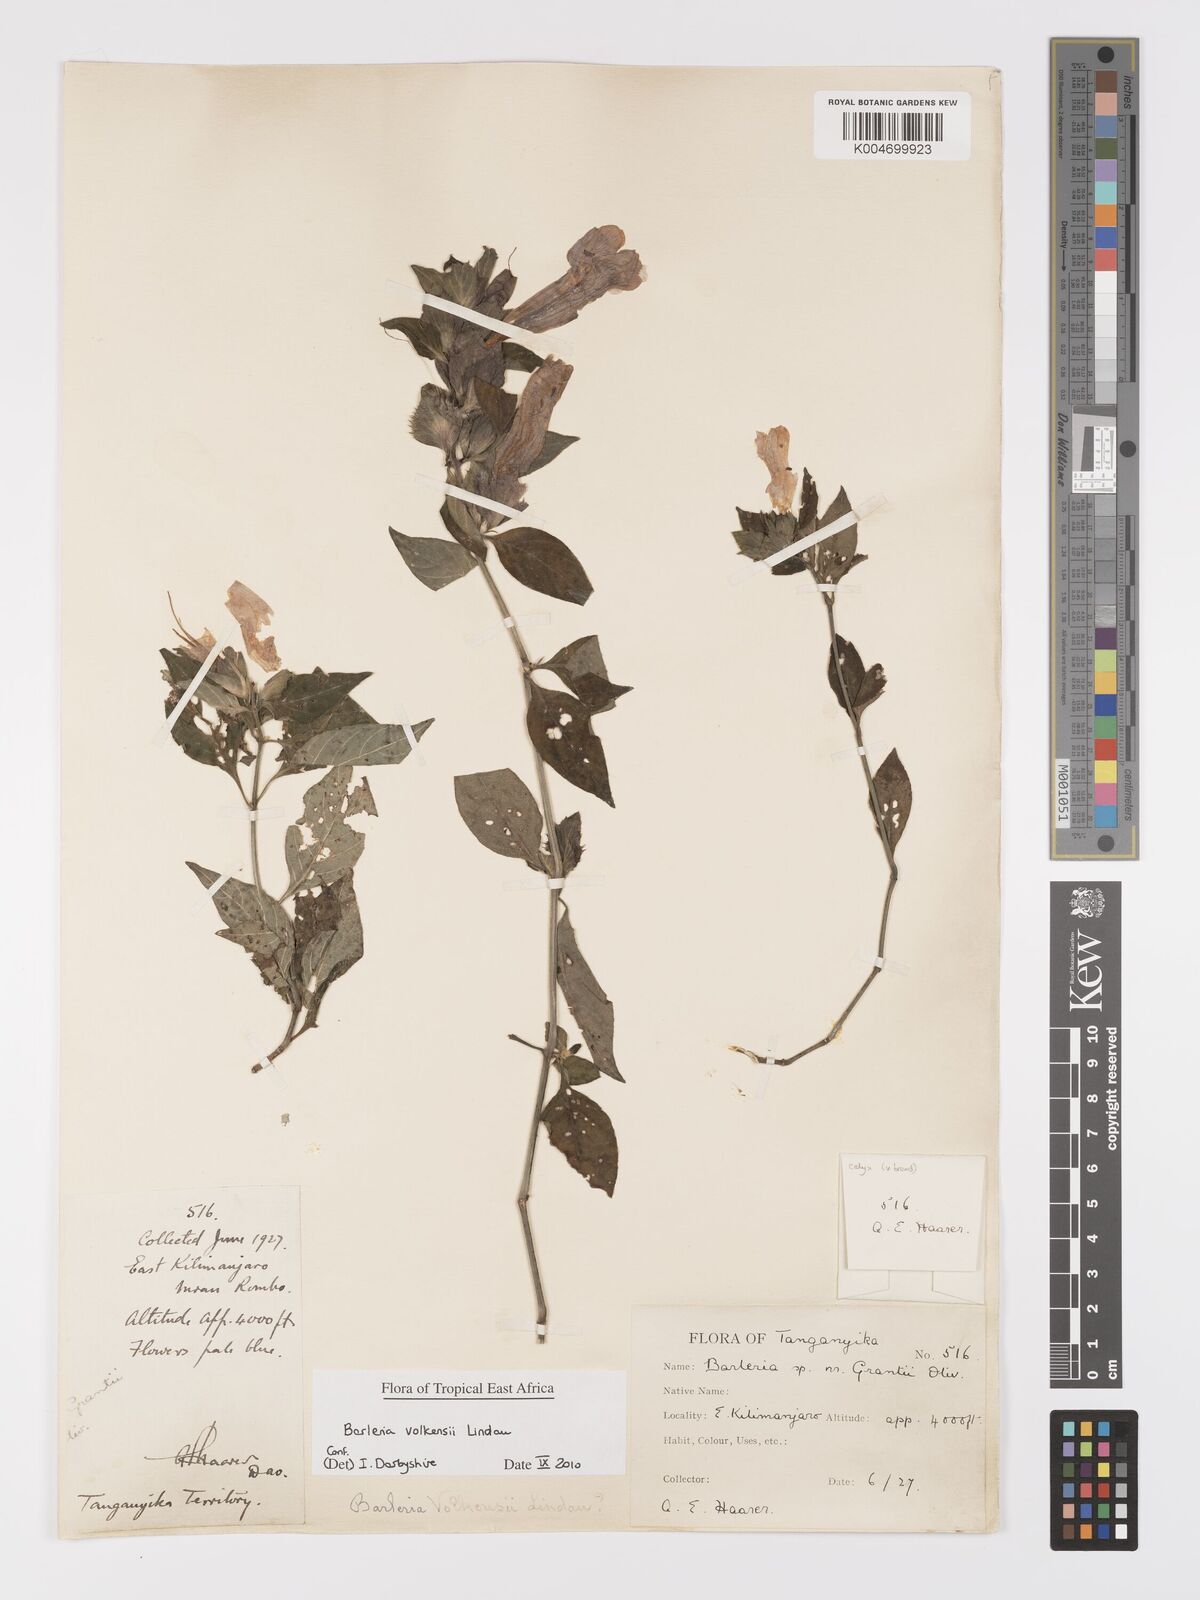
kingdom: Plantae
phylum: Tracheophyta
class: Magnoliopsida
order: Lamiales
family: Acanthaceae
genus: Barleria
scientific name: Barleria volkensii
